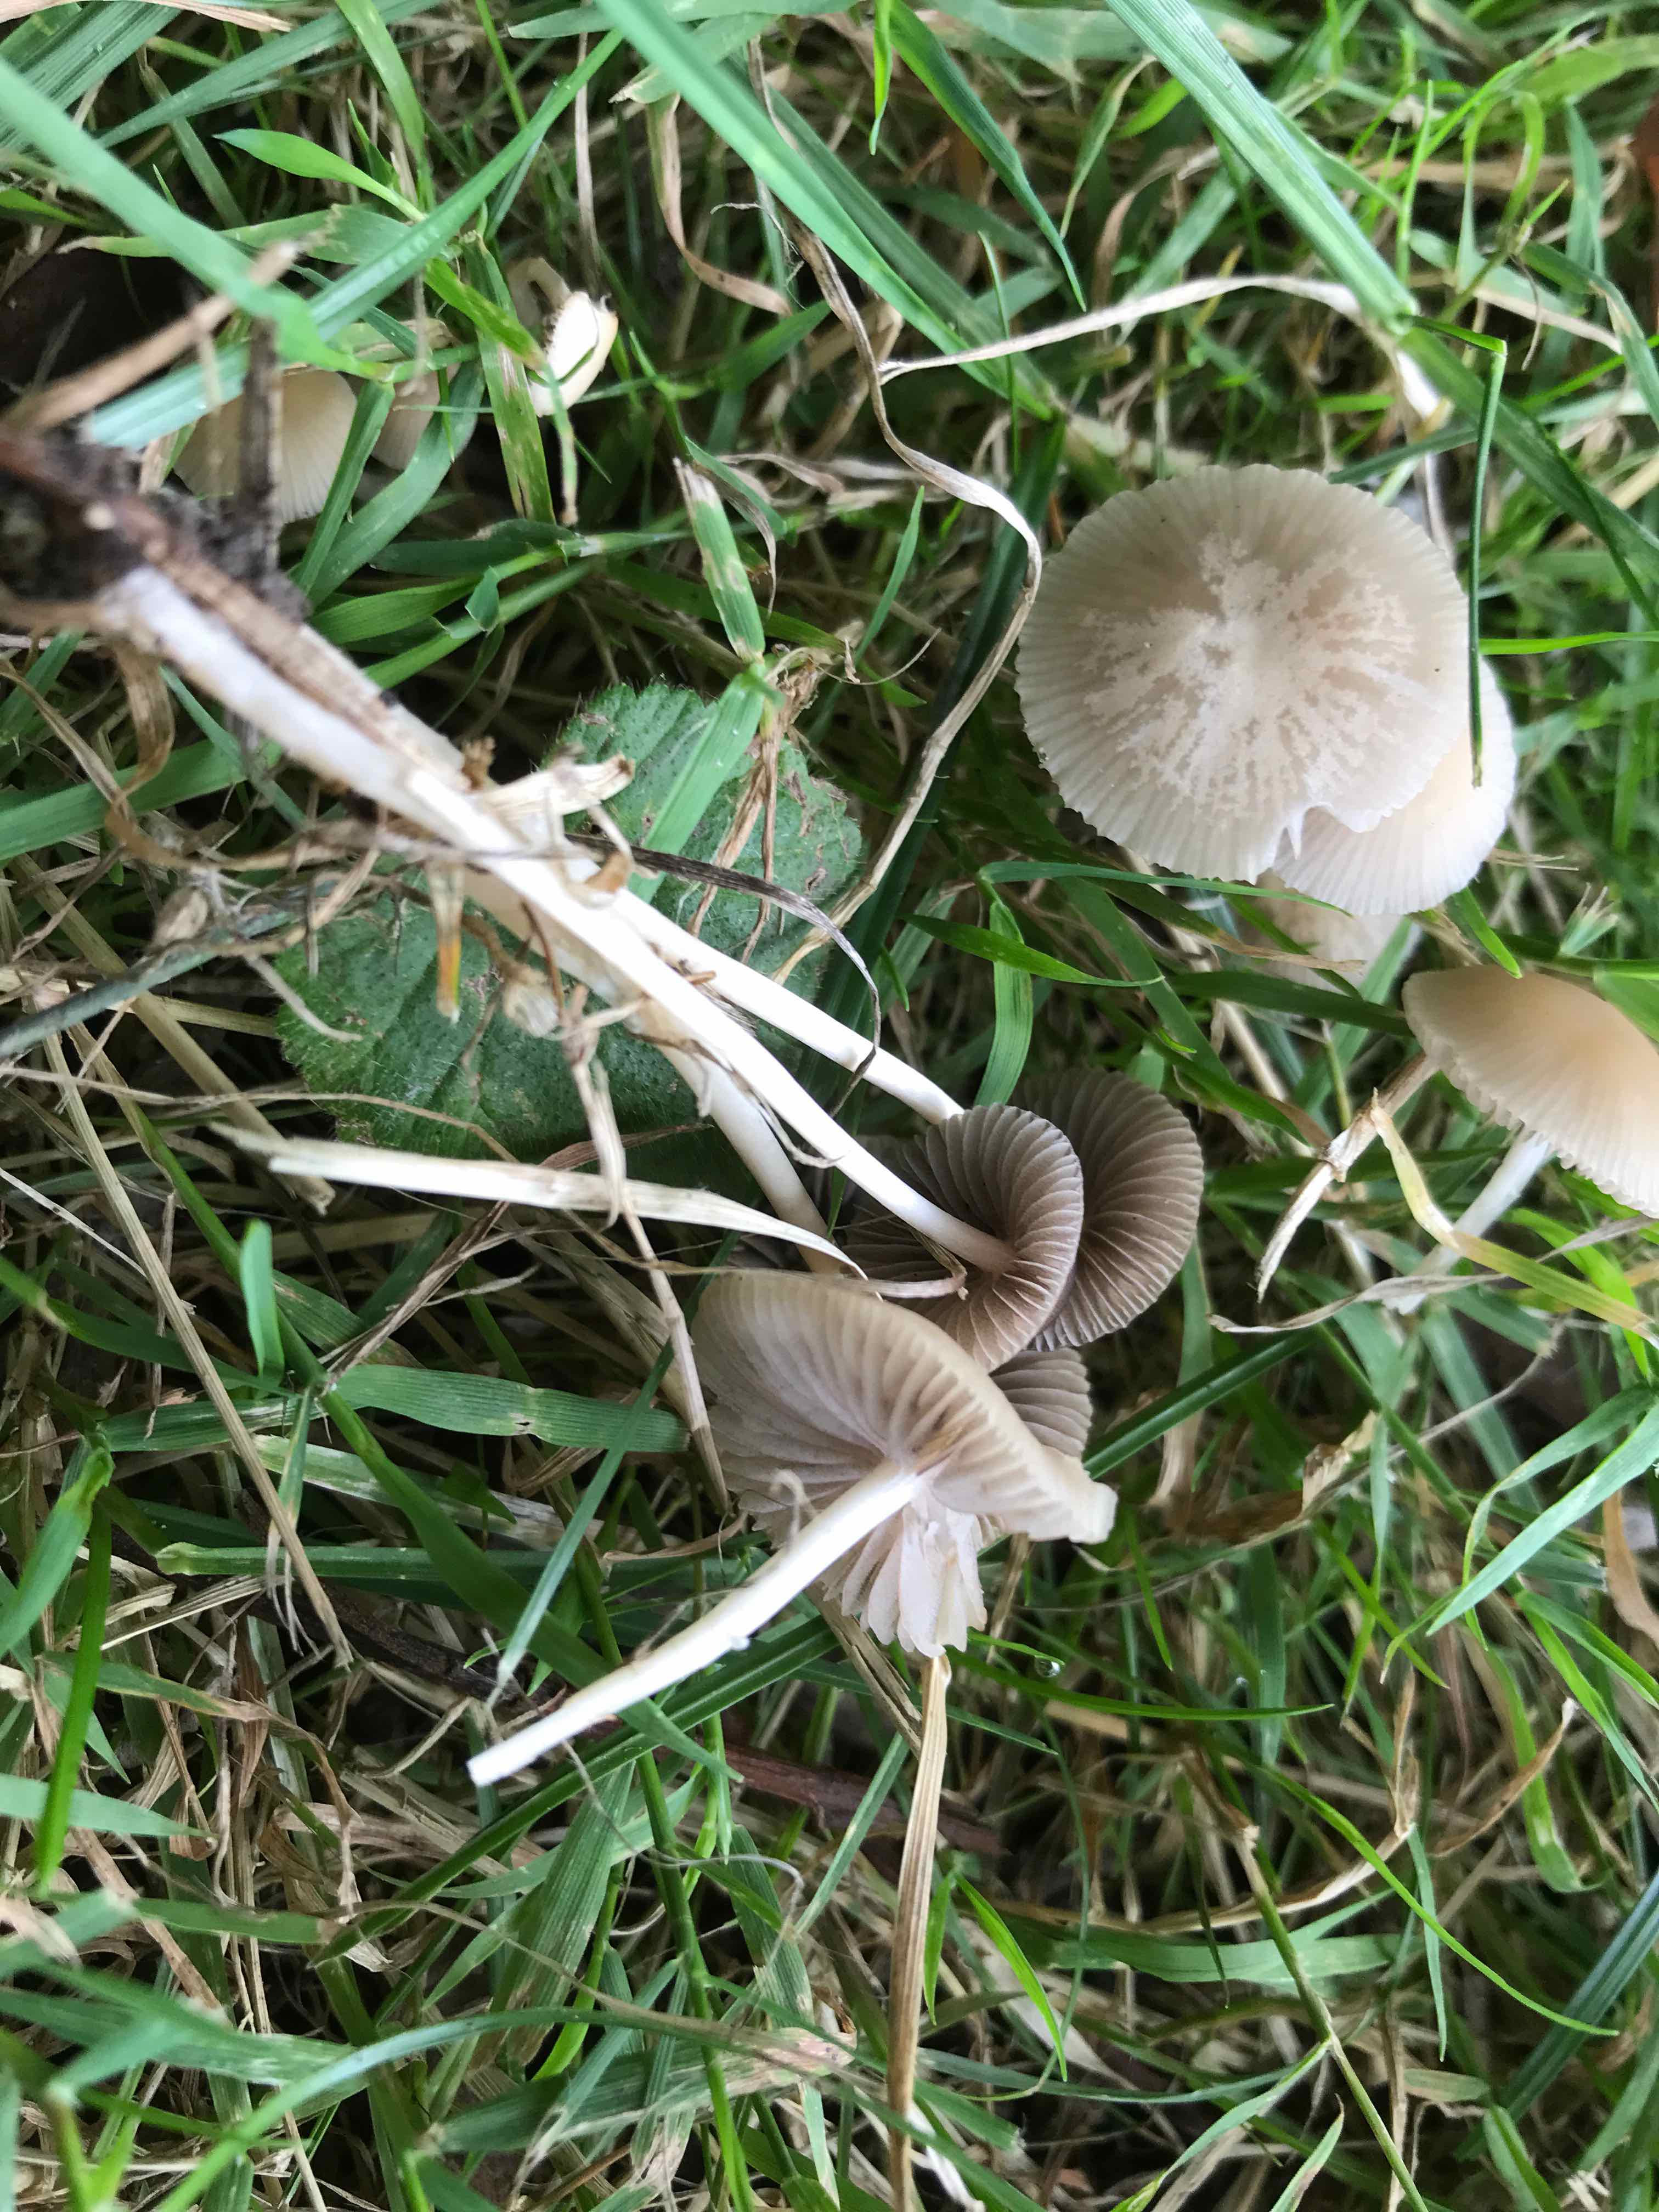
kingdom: Fungi
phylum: Basidiomycota
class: Agaricomycetes
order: Agaricales
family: Psathyrellaceae
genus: Psathyrella
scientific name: Psathyrella
